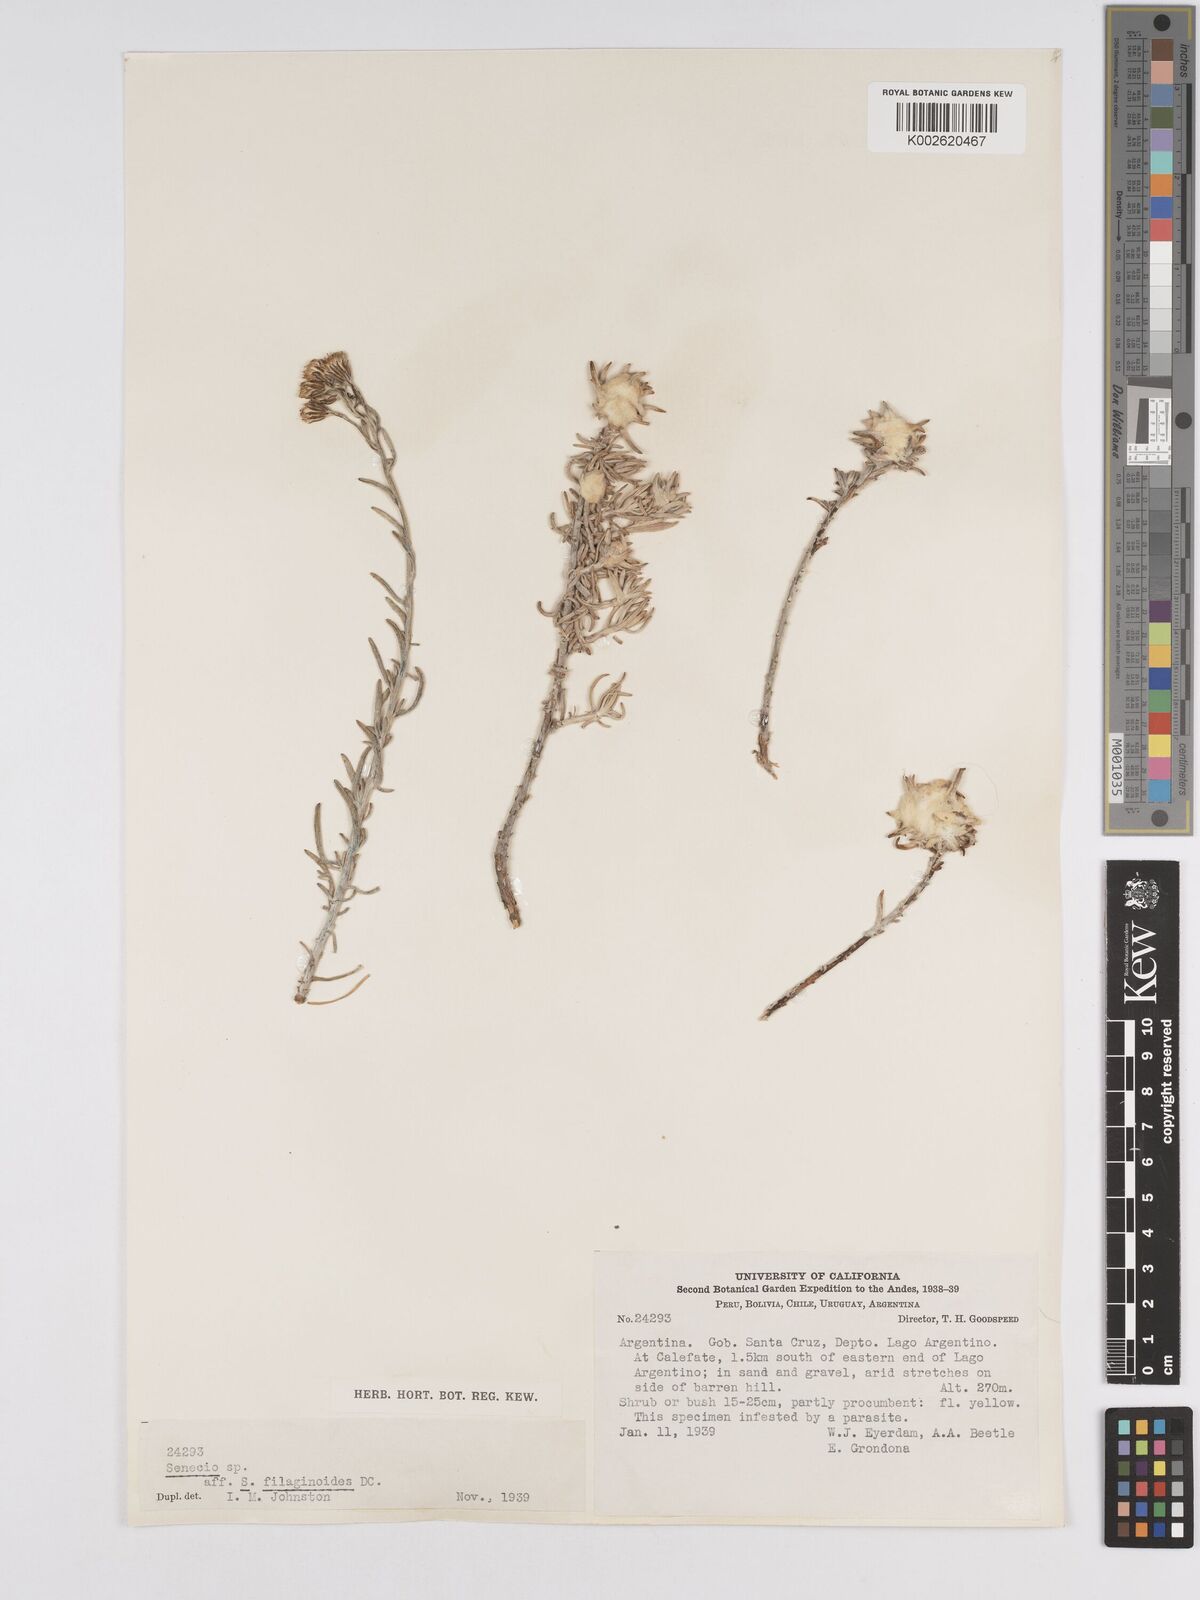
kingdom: Plantae
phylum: Tracheophyta
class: Magnoliopsida
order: Asterales
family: Asteraceae
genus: Senecio
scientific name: Senecio filaginoides
